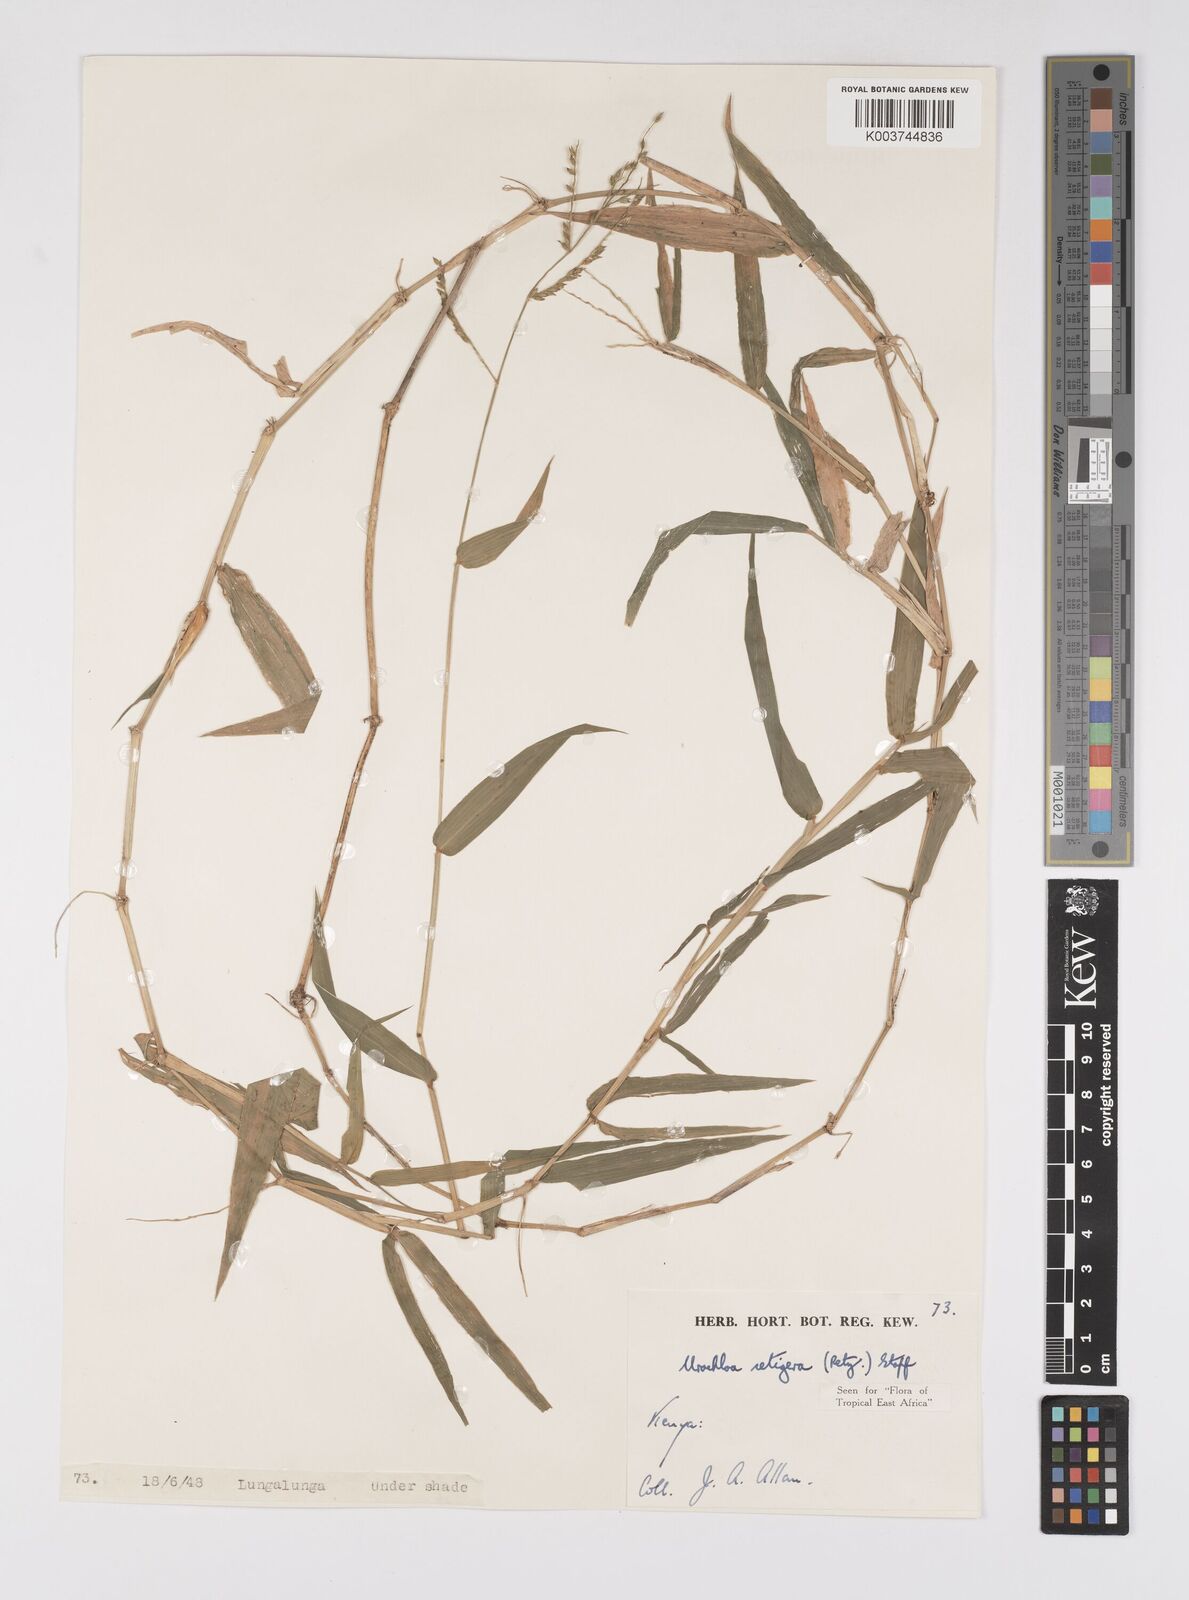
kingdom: Plantae
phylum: Tracheophyta
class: Liliopsida
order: Poales
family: Poaceae
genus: Urochloa
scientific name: Urochloa trichopodioides
